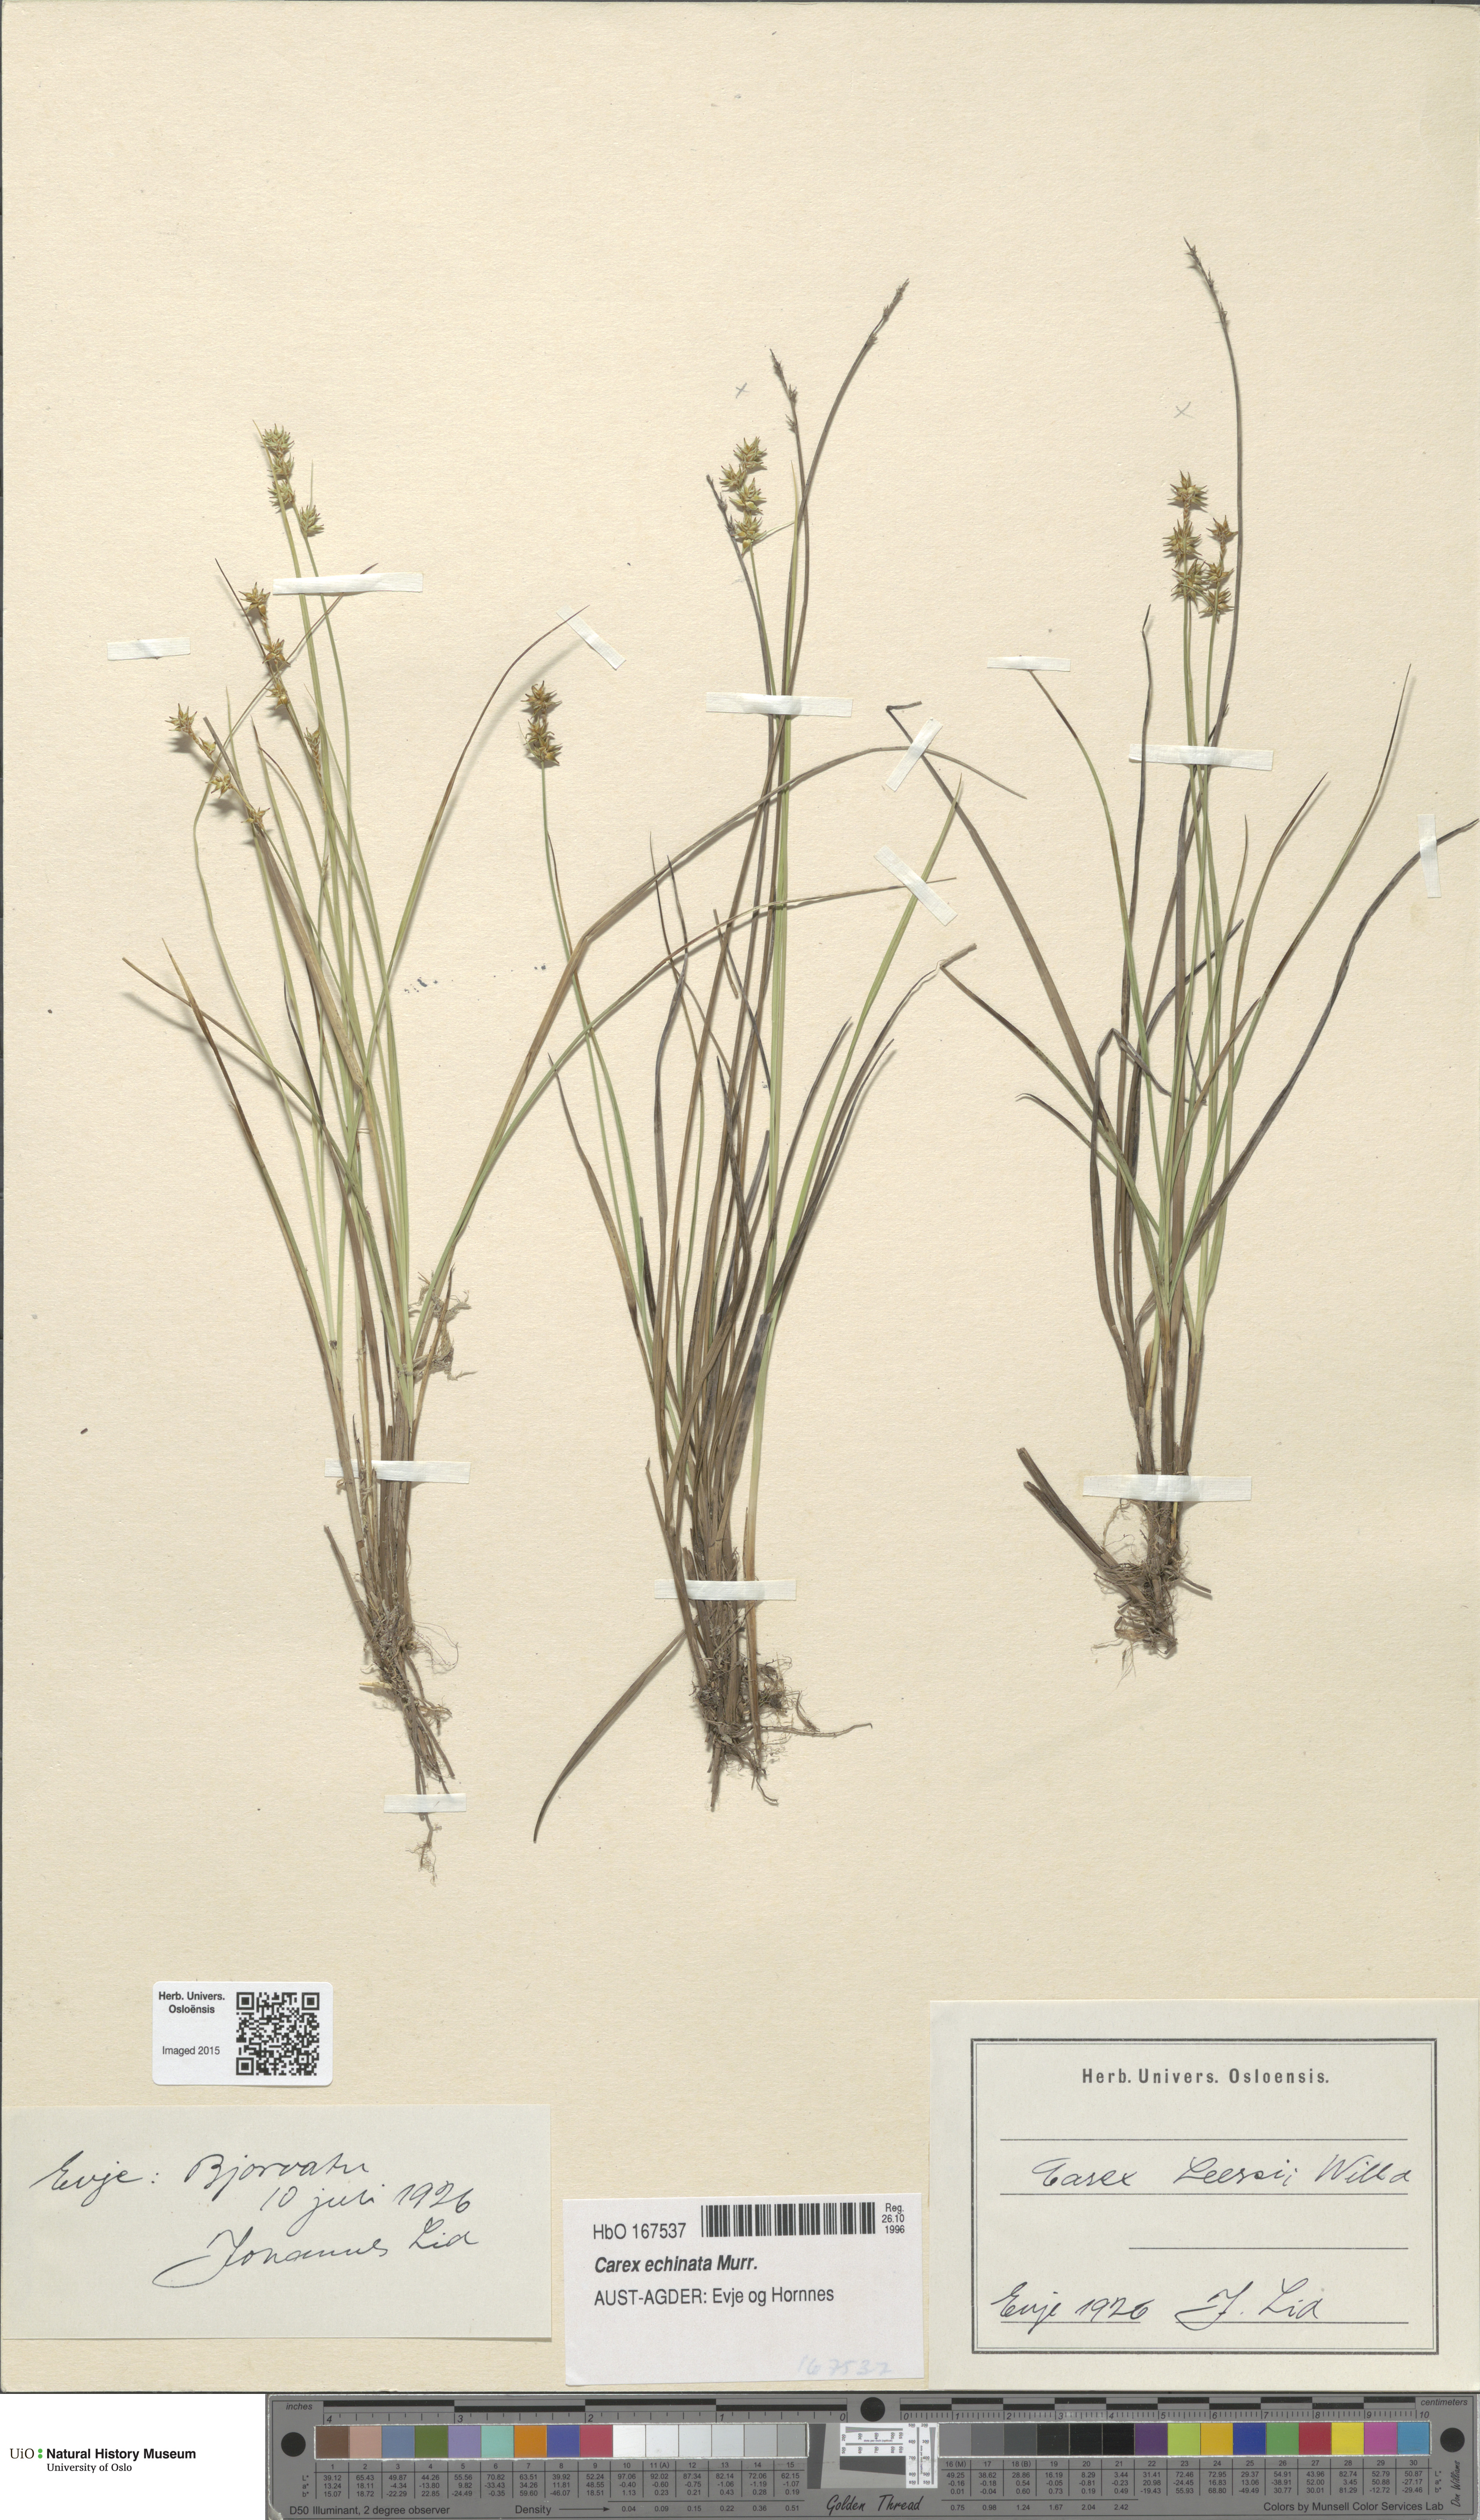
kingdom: Plantae
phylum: Tracheophyta
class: Liliopsida
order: Poales
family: Cyperaceae
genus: Carex
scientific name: Carex echinata
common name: Star sedge
